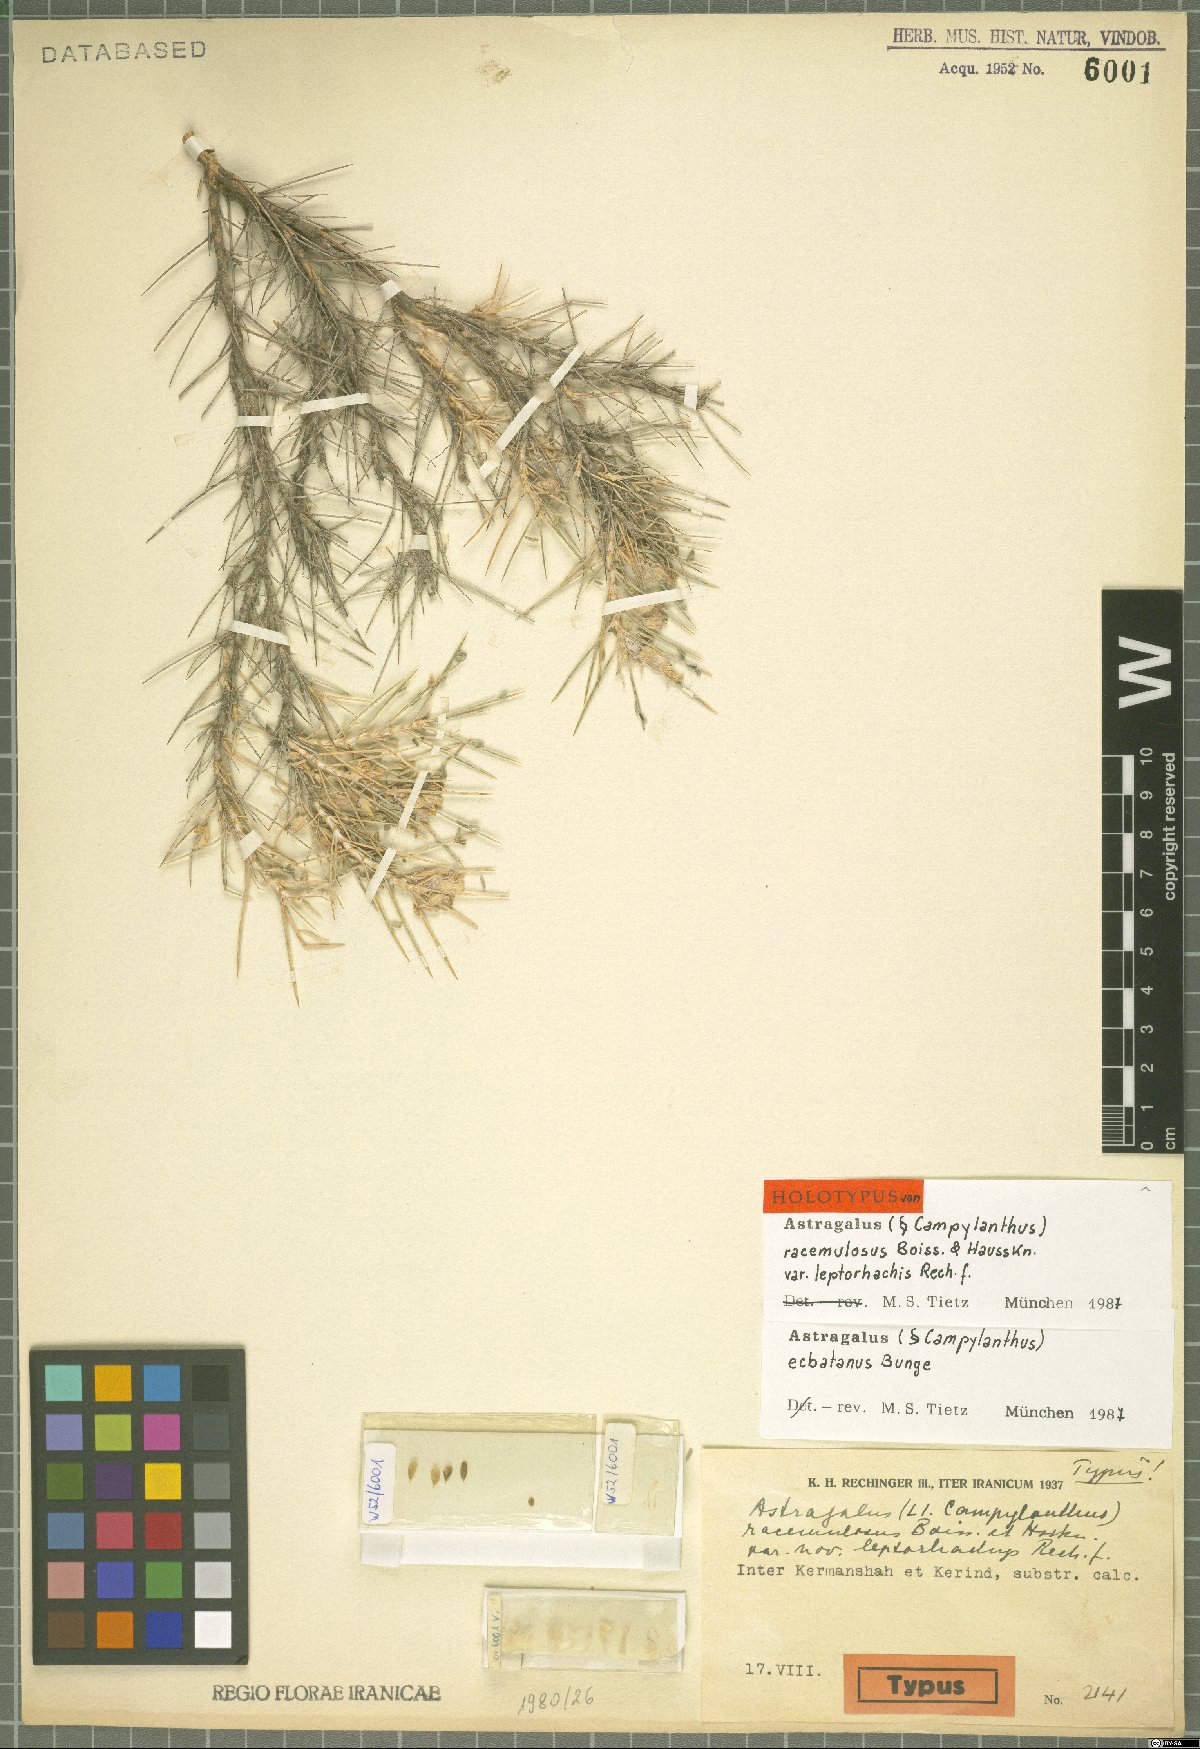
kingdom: Plantae
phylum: Tracheophyta
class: Magnoliopsida
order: Fabales
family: Fabaceae
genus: Astragalus
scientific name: Astragalus ecbatanus
